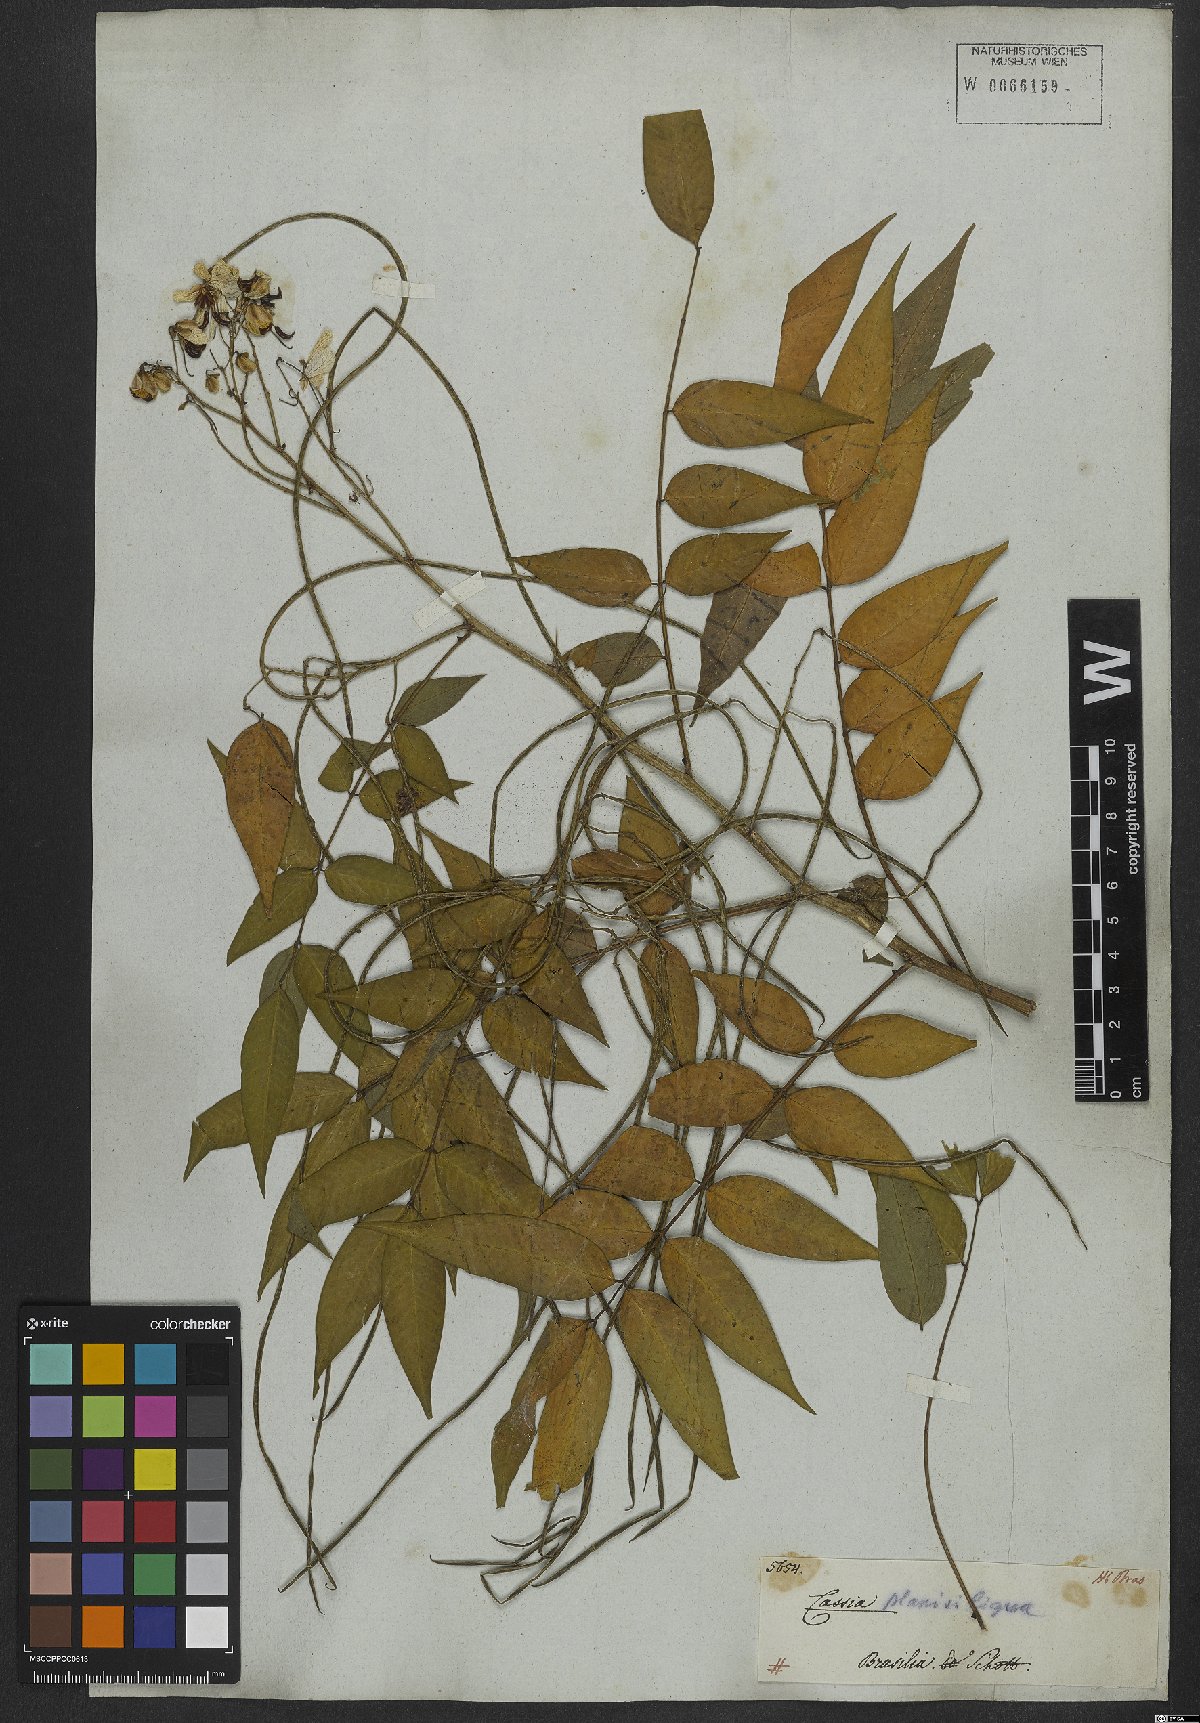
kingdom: Plantae
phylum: Tracheophyta
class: Magnoliopsida
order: Fabales
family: Fabaceae
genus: Senna
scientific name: Senna occidentalis
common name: Septicweed
